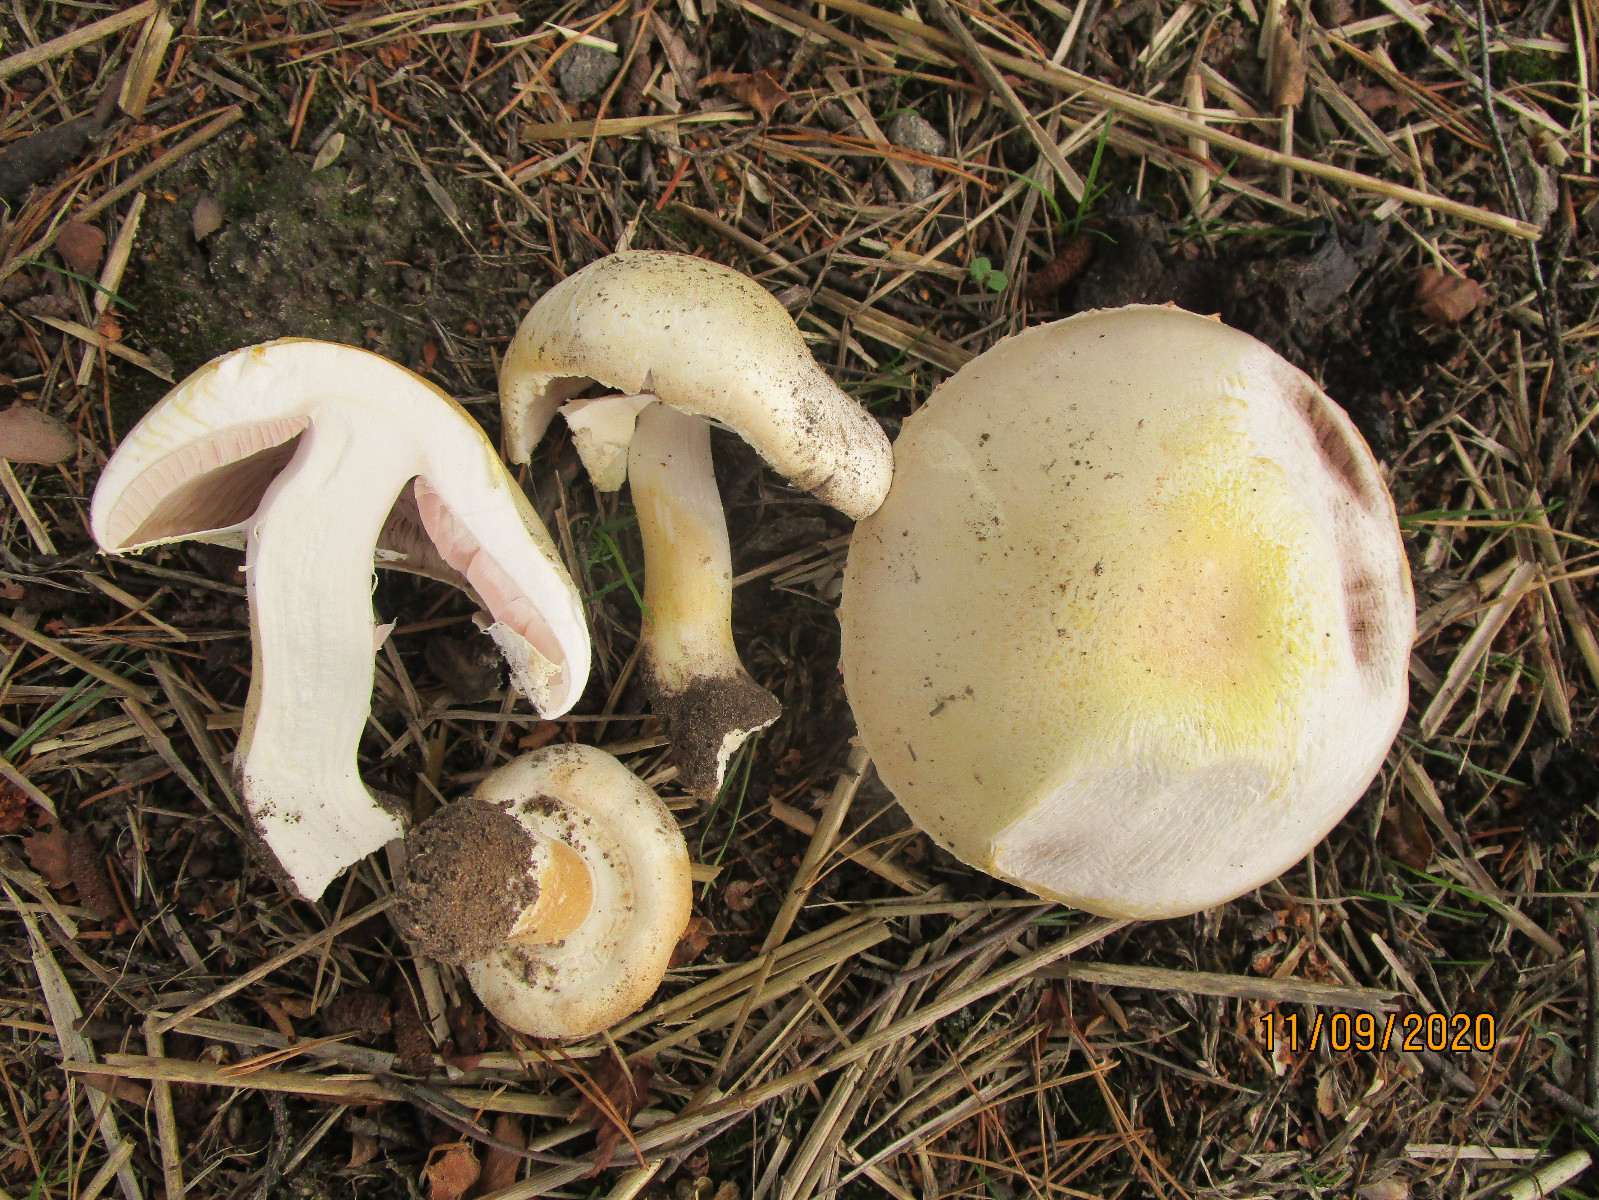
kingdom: Fungi
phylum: Basidiomycota
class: Agaricomycetes
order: Agaricales
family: Agaricaceae
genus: Agaricus
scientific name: Agaricus arvensis
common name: ager-champignon
